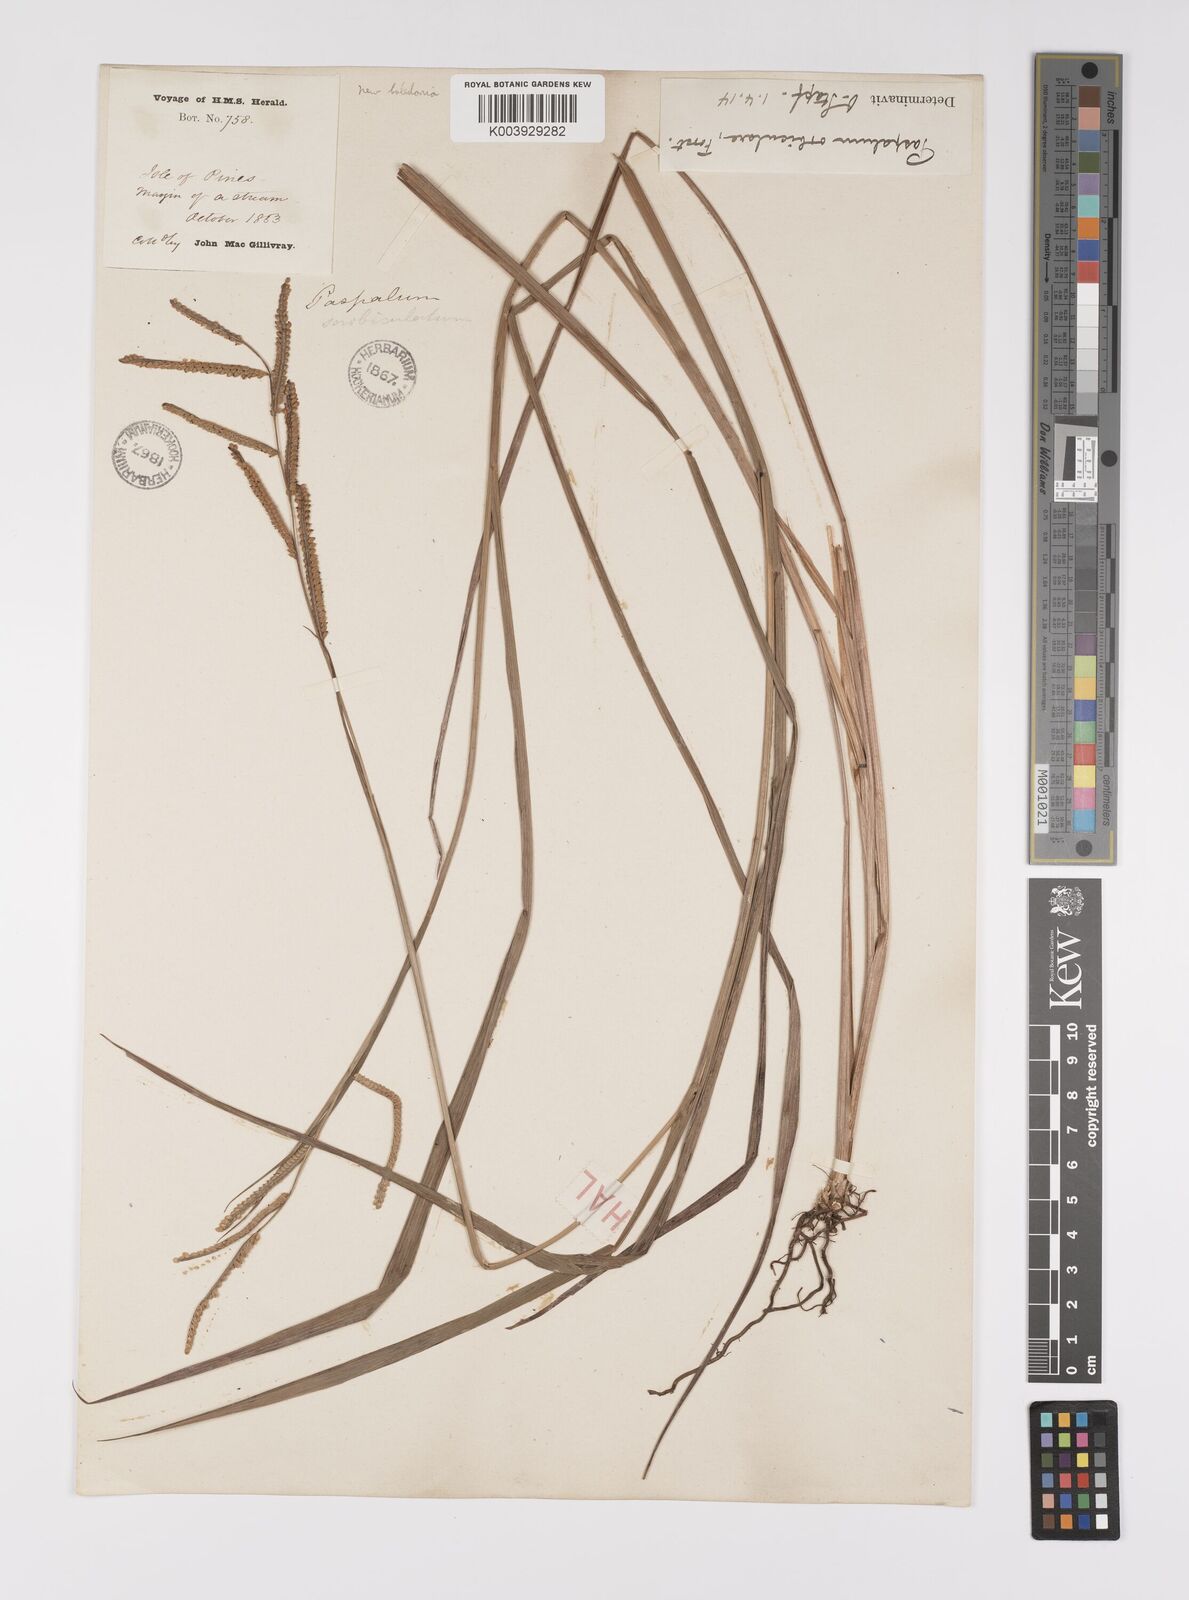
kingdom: Plantae
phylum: Tracheophyta
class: Liliopsida
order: Poales
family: Poaceae
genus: Paspalum
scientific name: Paspalum laeve
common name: Field paspalum
